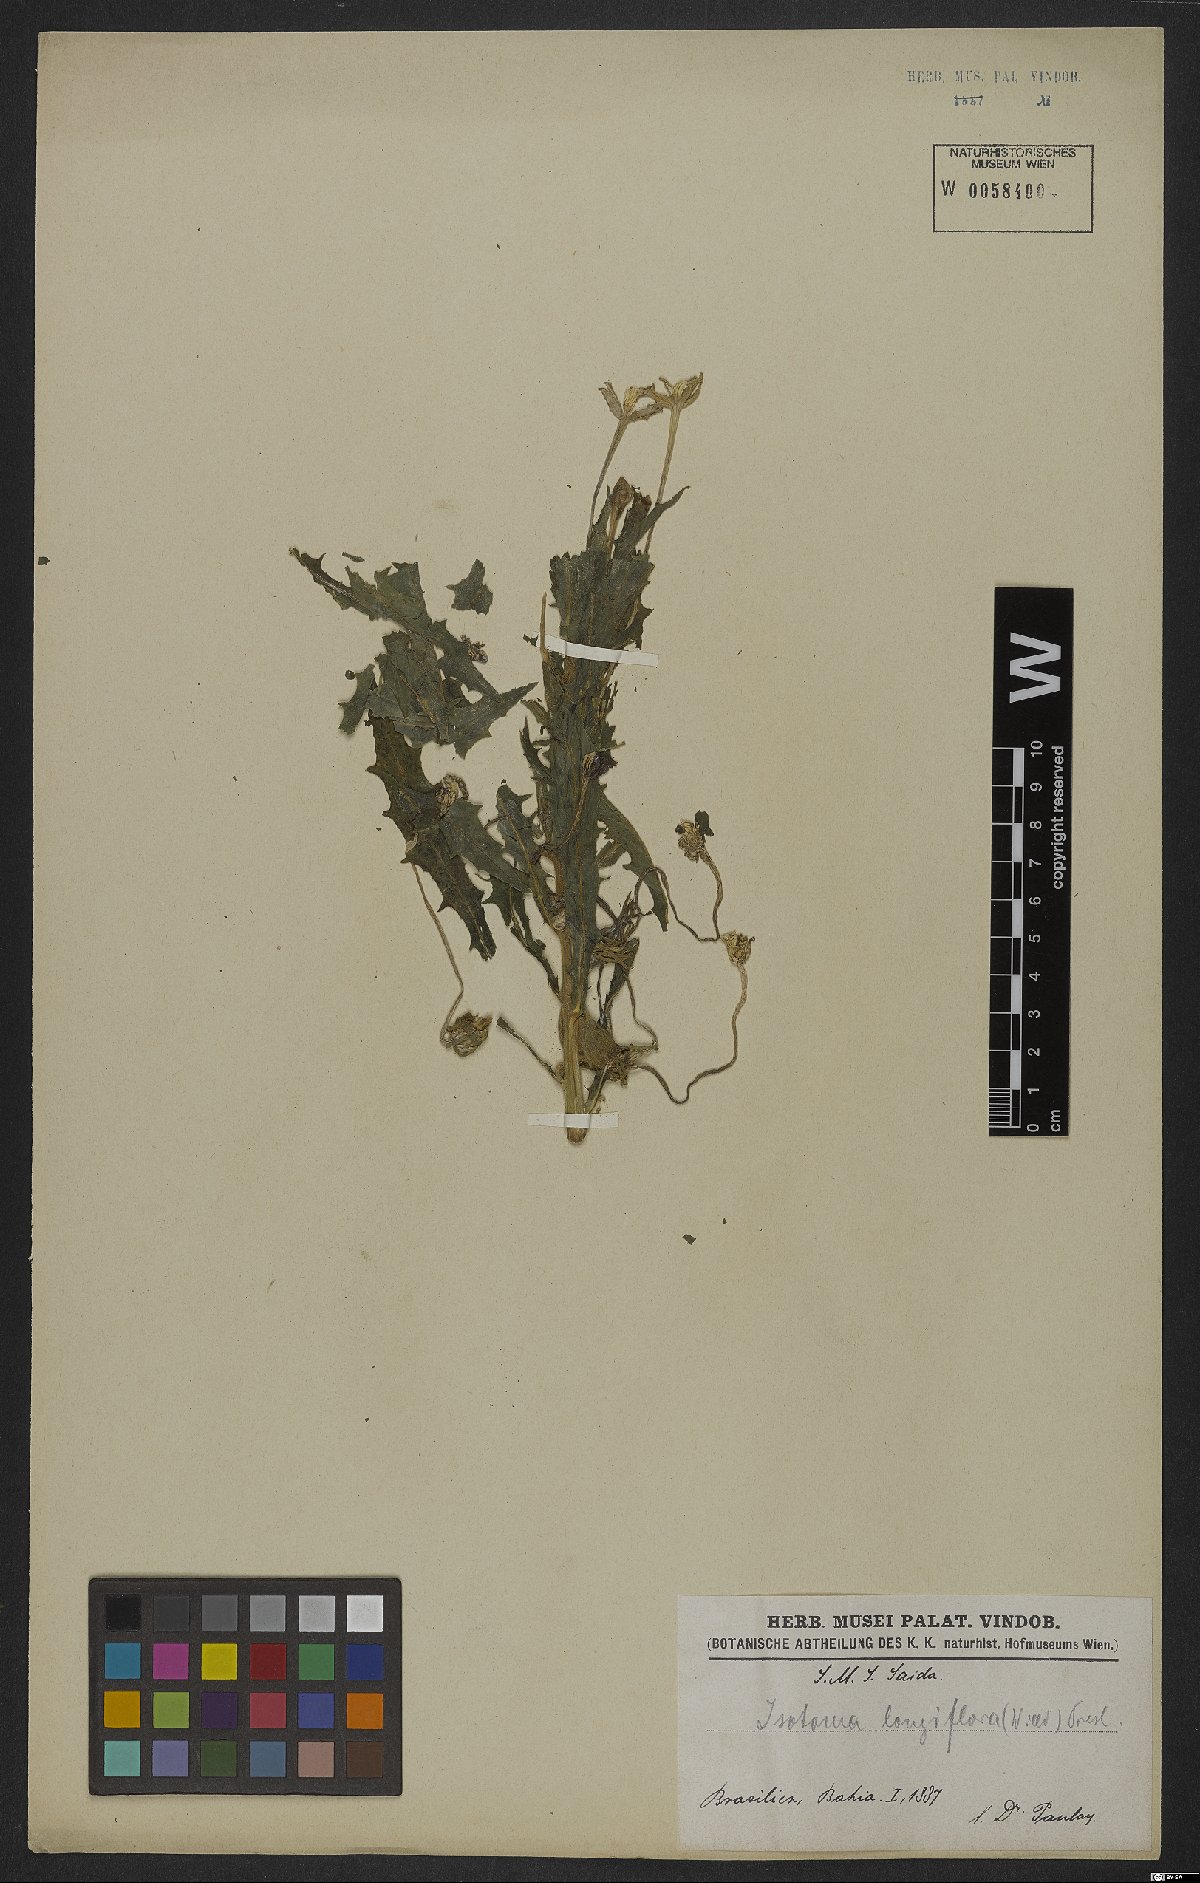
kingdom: Plantae
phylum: Tracheophyta
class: Magnoliopsida
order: Asterales
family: Campanulaceae
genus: Hippobroma
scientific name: Hippobroma longiflora
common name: Madamfate
